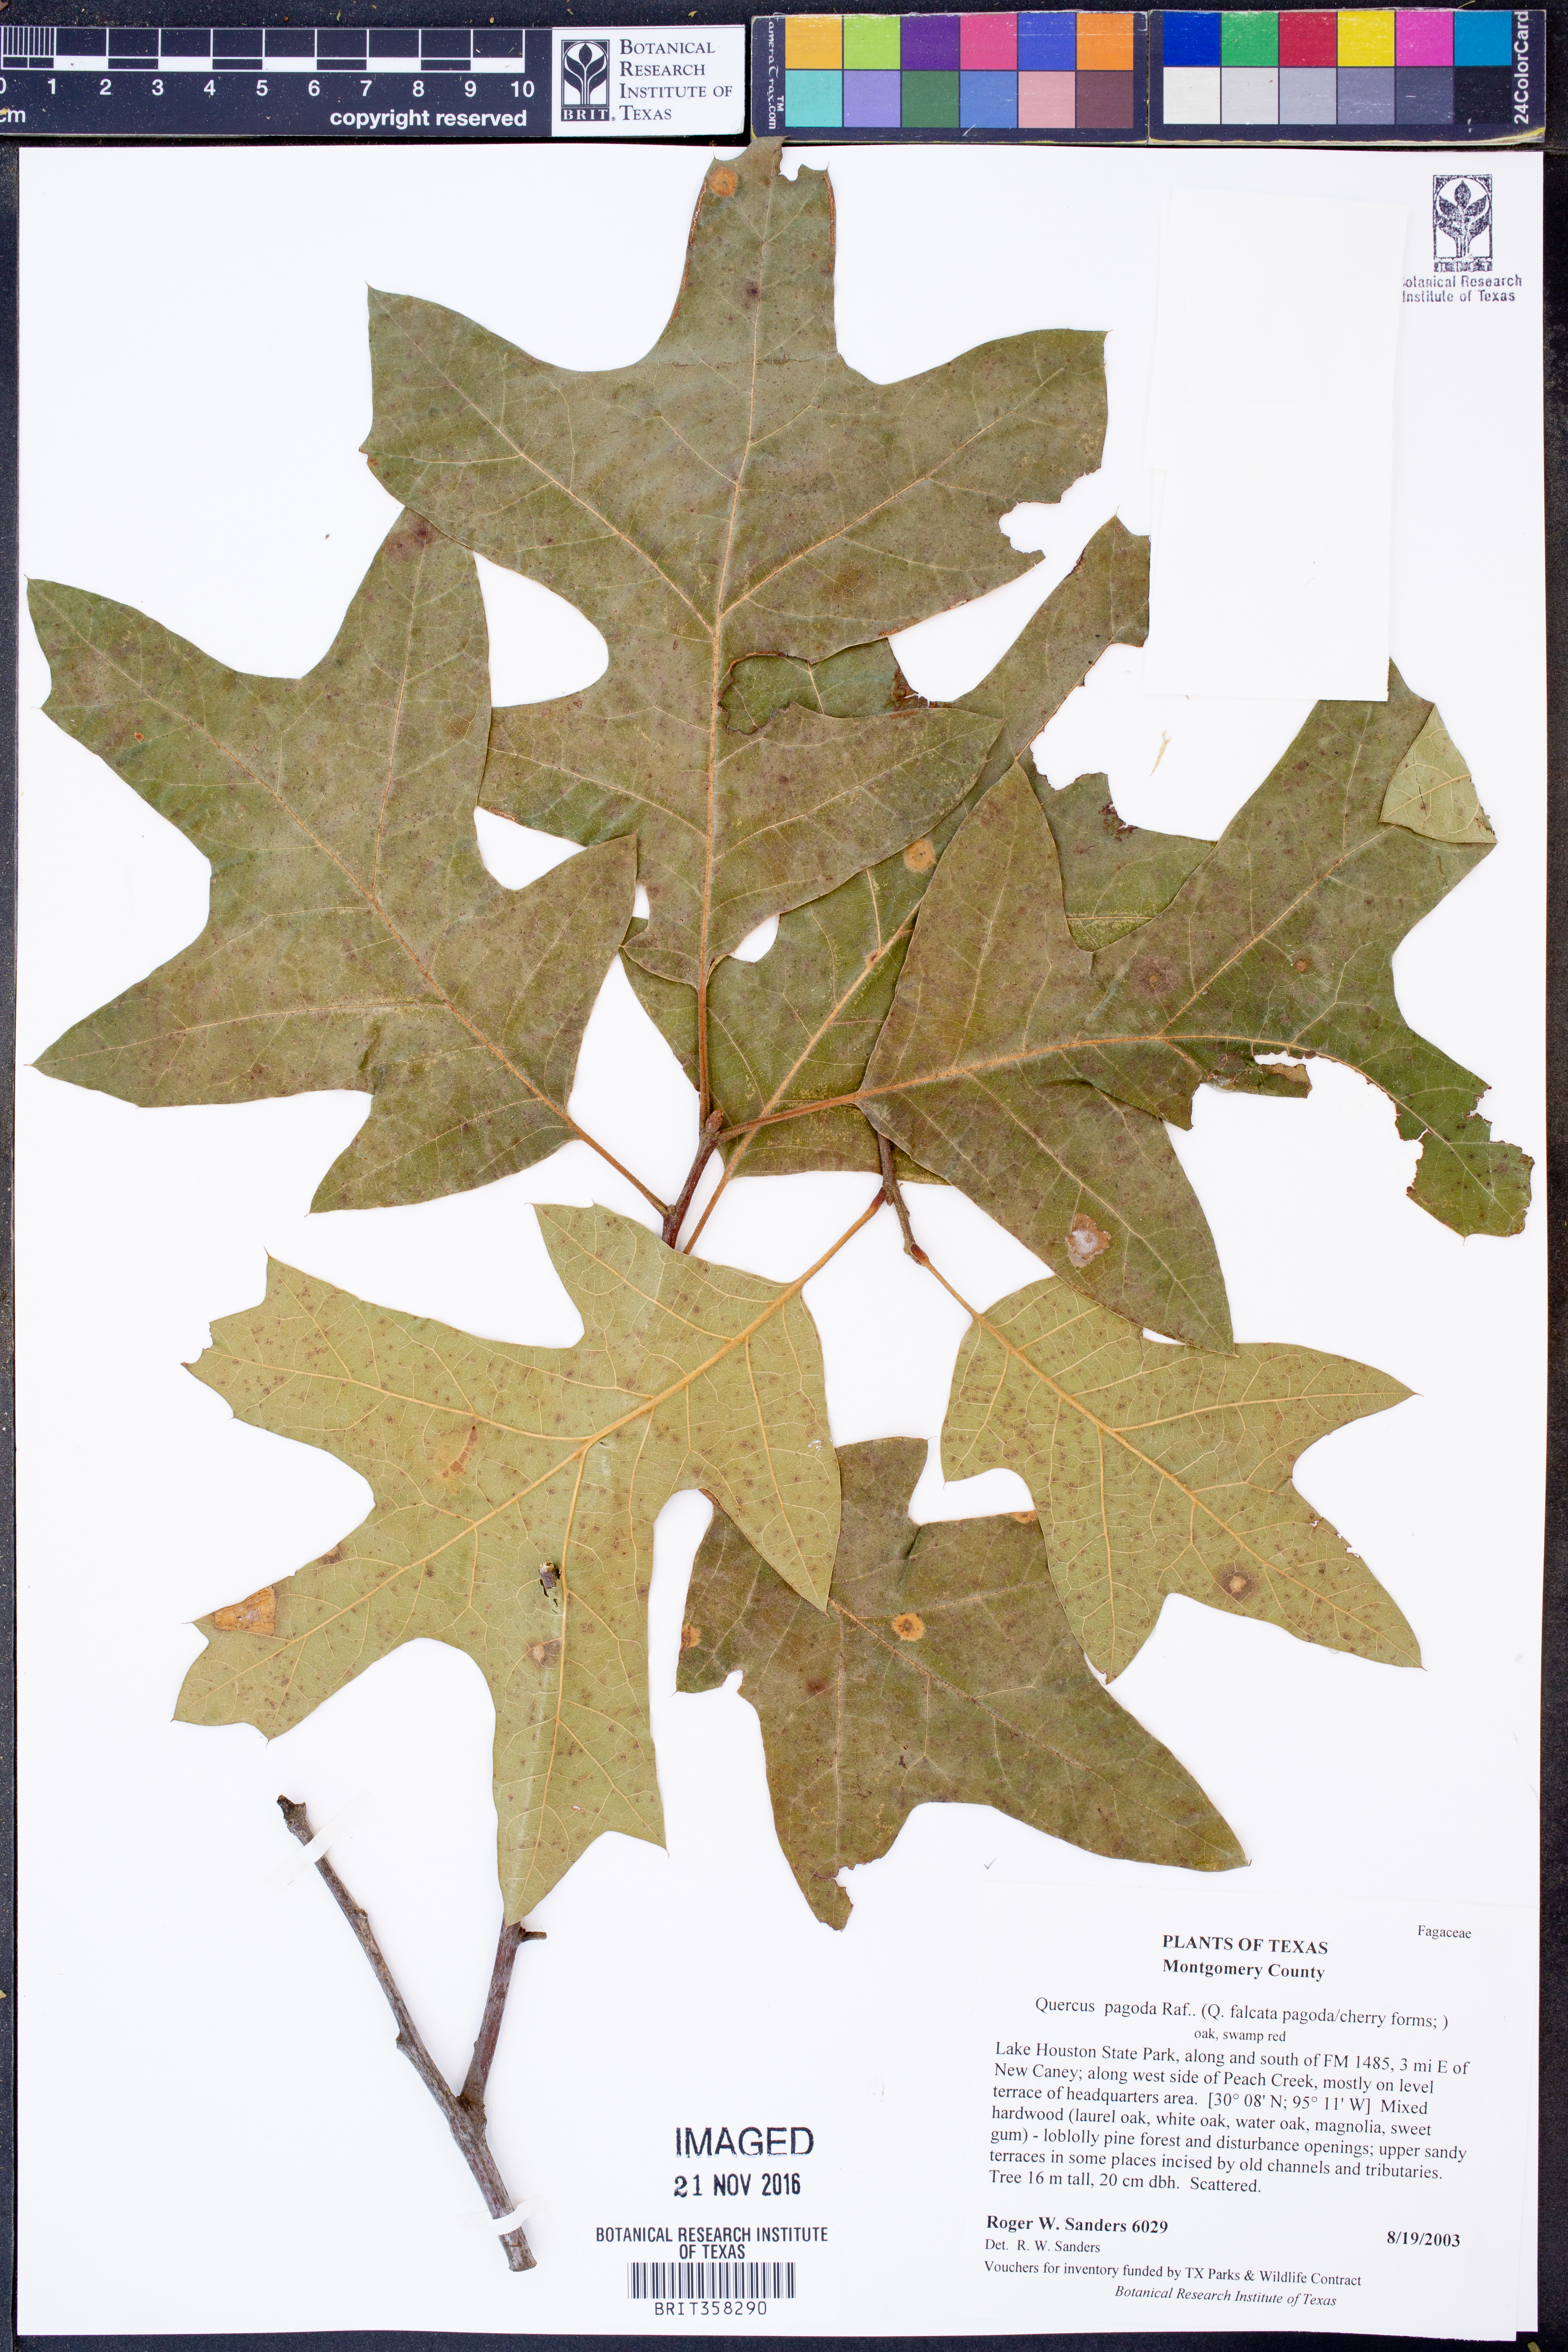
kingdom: Plantae
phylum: Tracheophyta
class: Magnoliopsida
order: Fagales
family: Fagaceae
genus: Quercus
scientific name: Quercus pagoda
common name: Cherrybark oak
